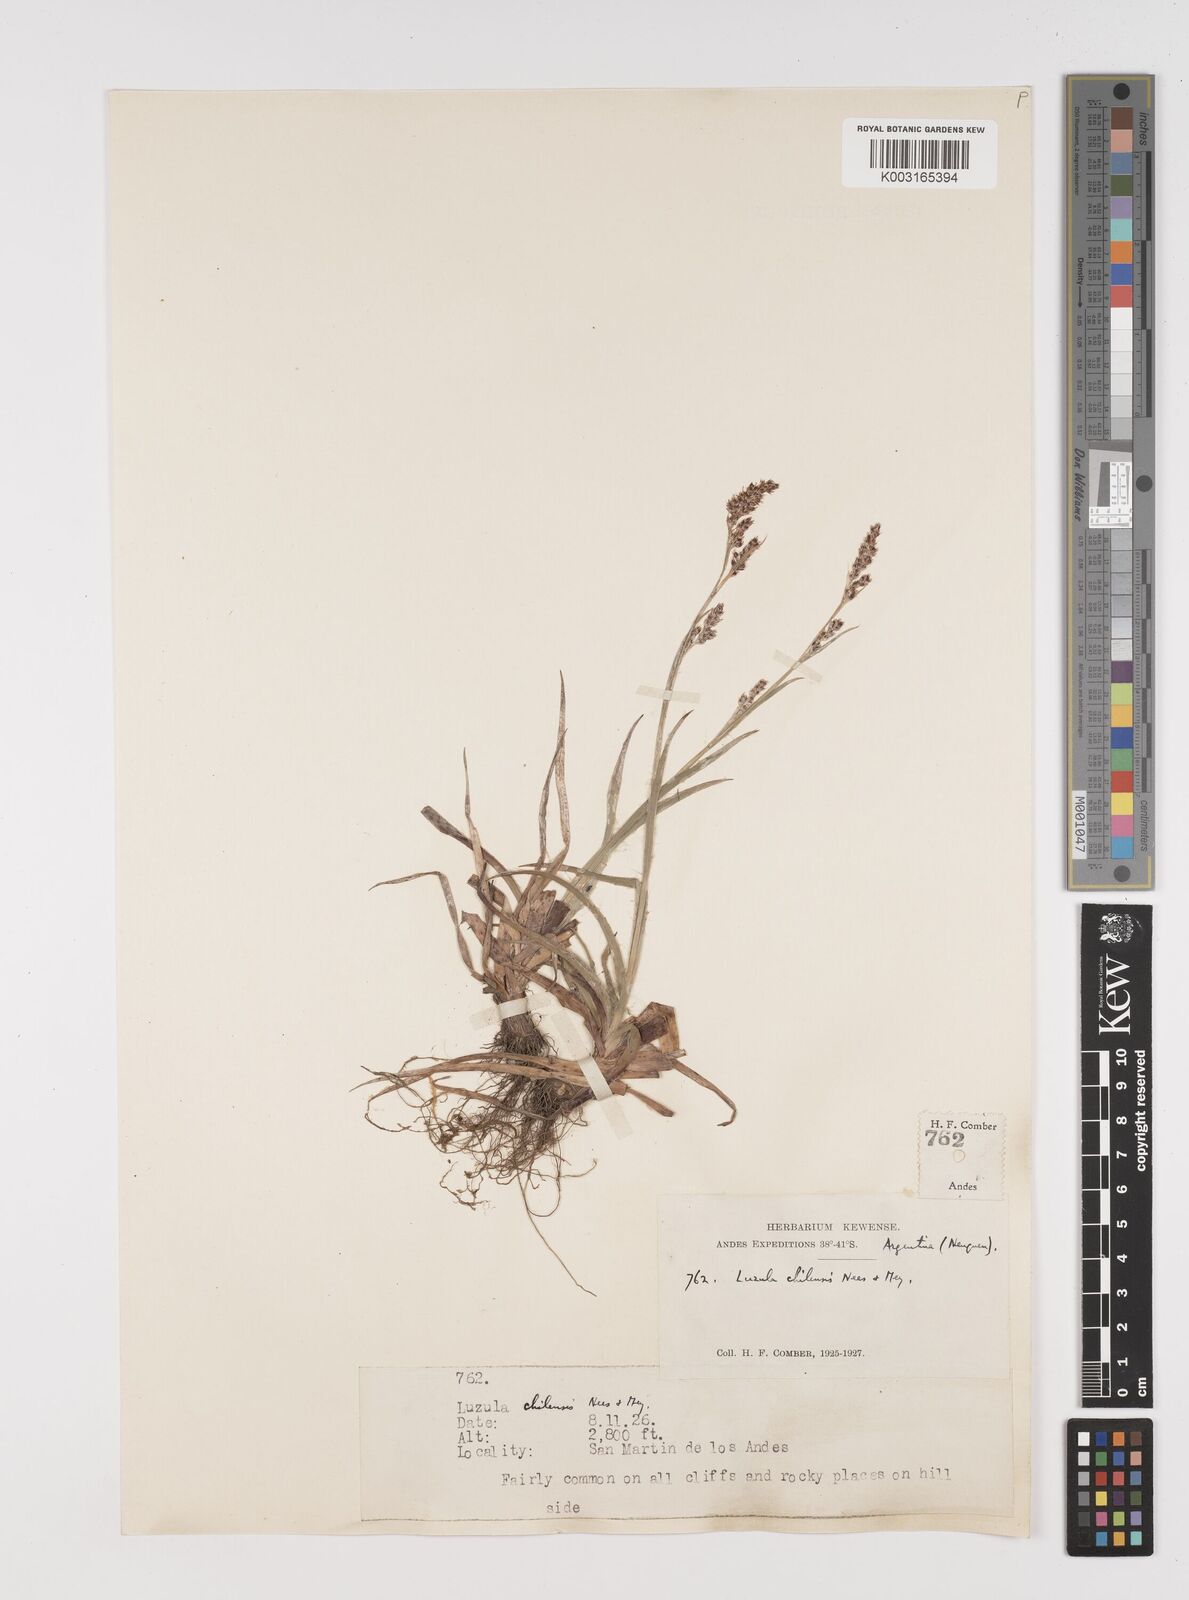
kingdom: Plantae
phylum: Tracheophyta
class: Liliopsida
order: Poales
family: Juncaceae
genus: Luzula
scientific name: Luzula chilensis
